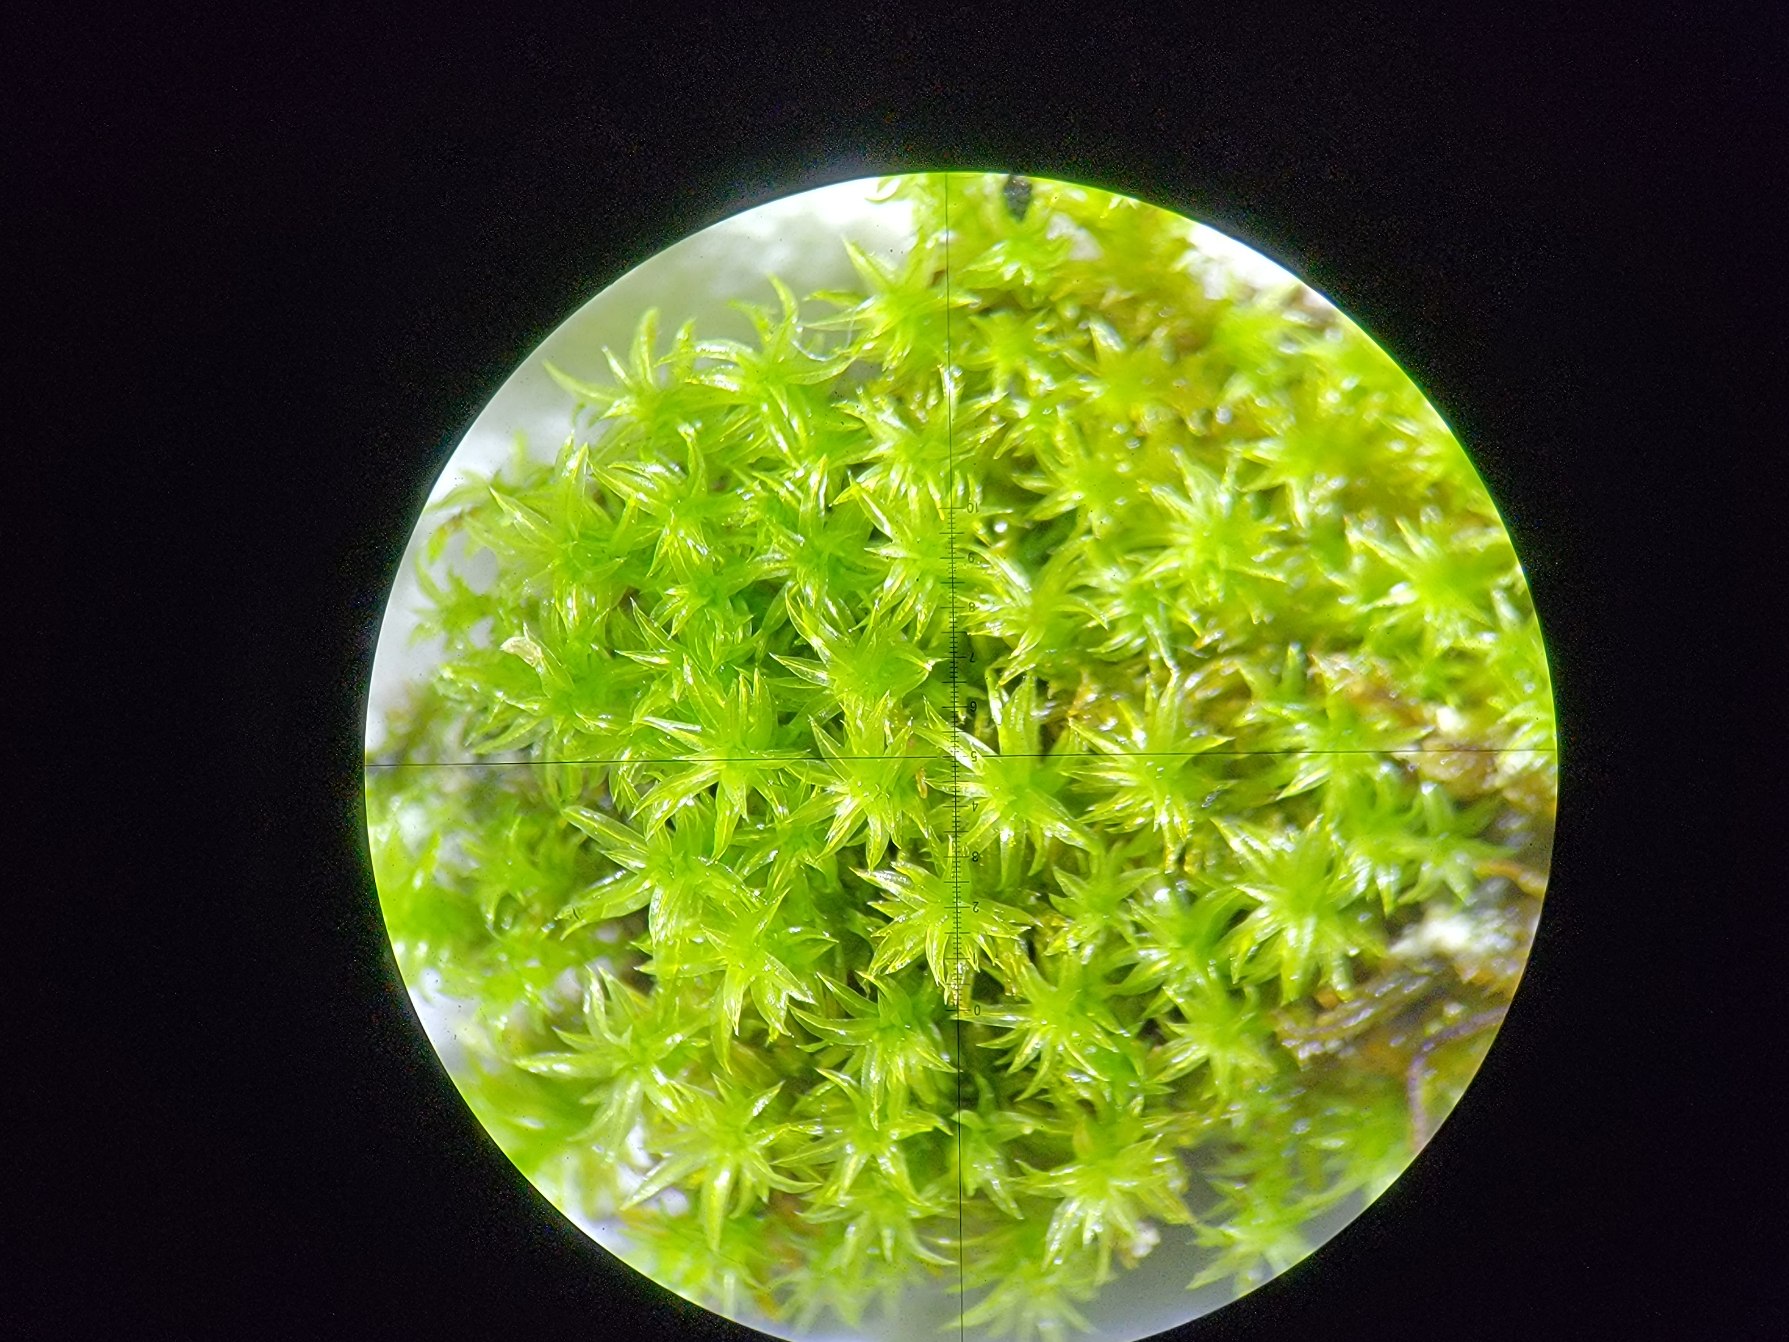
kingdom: Plantae
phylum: Bryophyta
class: Bryopsida
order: Orthotrichales
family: Orthotrichaceae
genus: Zygodon
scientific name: Zygodon rupestris
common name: Almindelig køllemos
